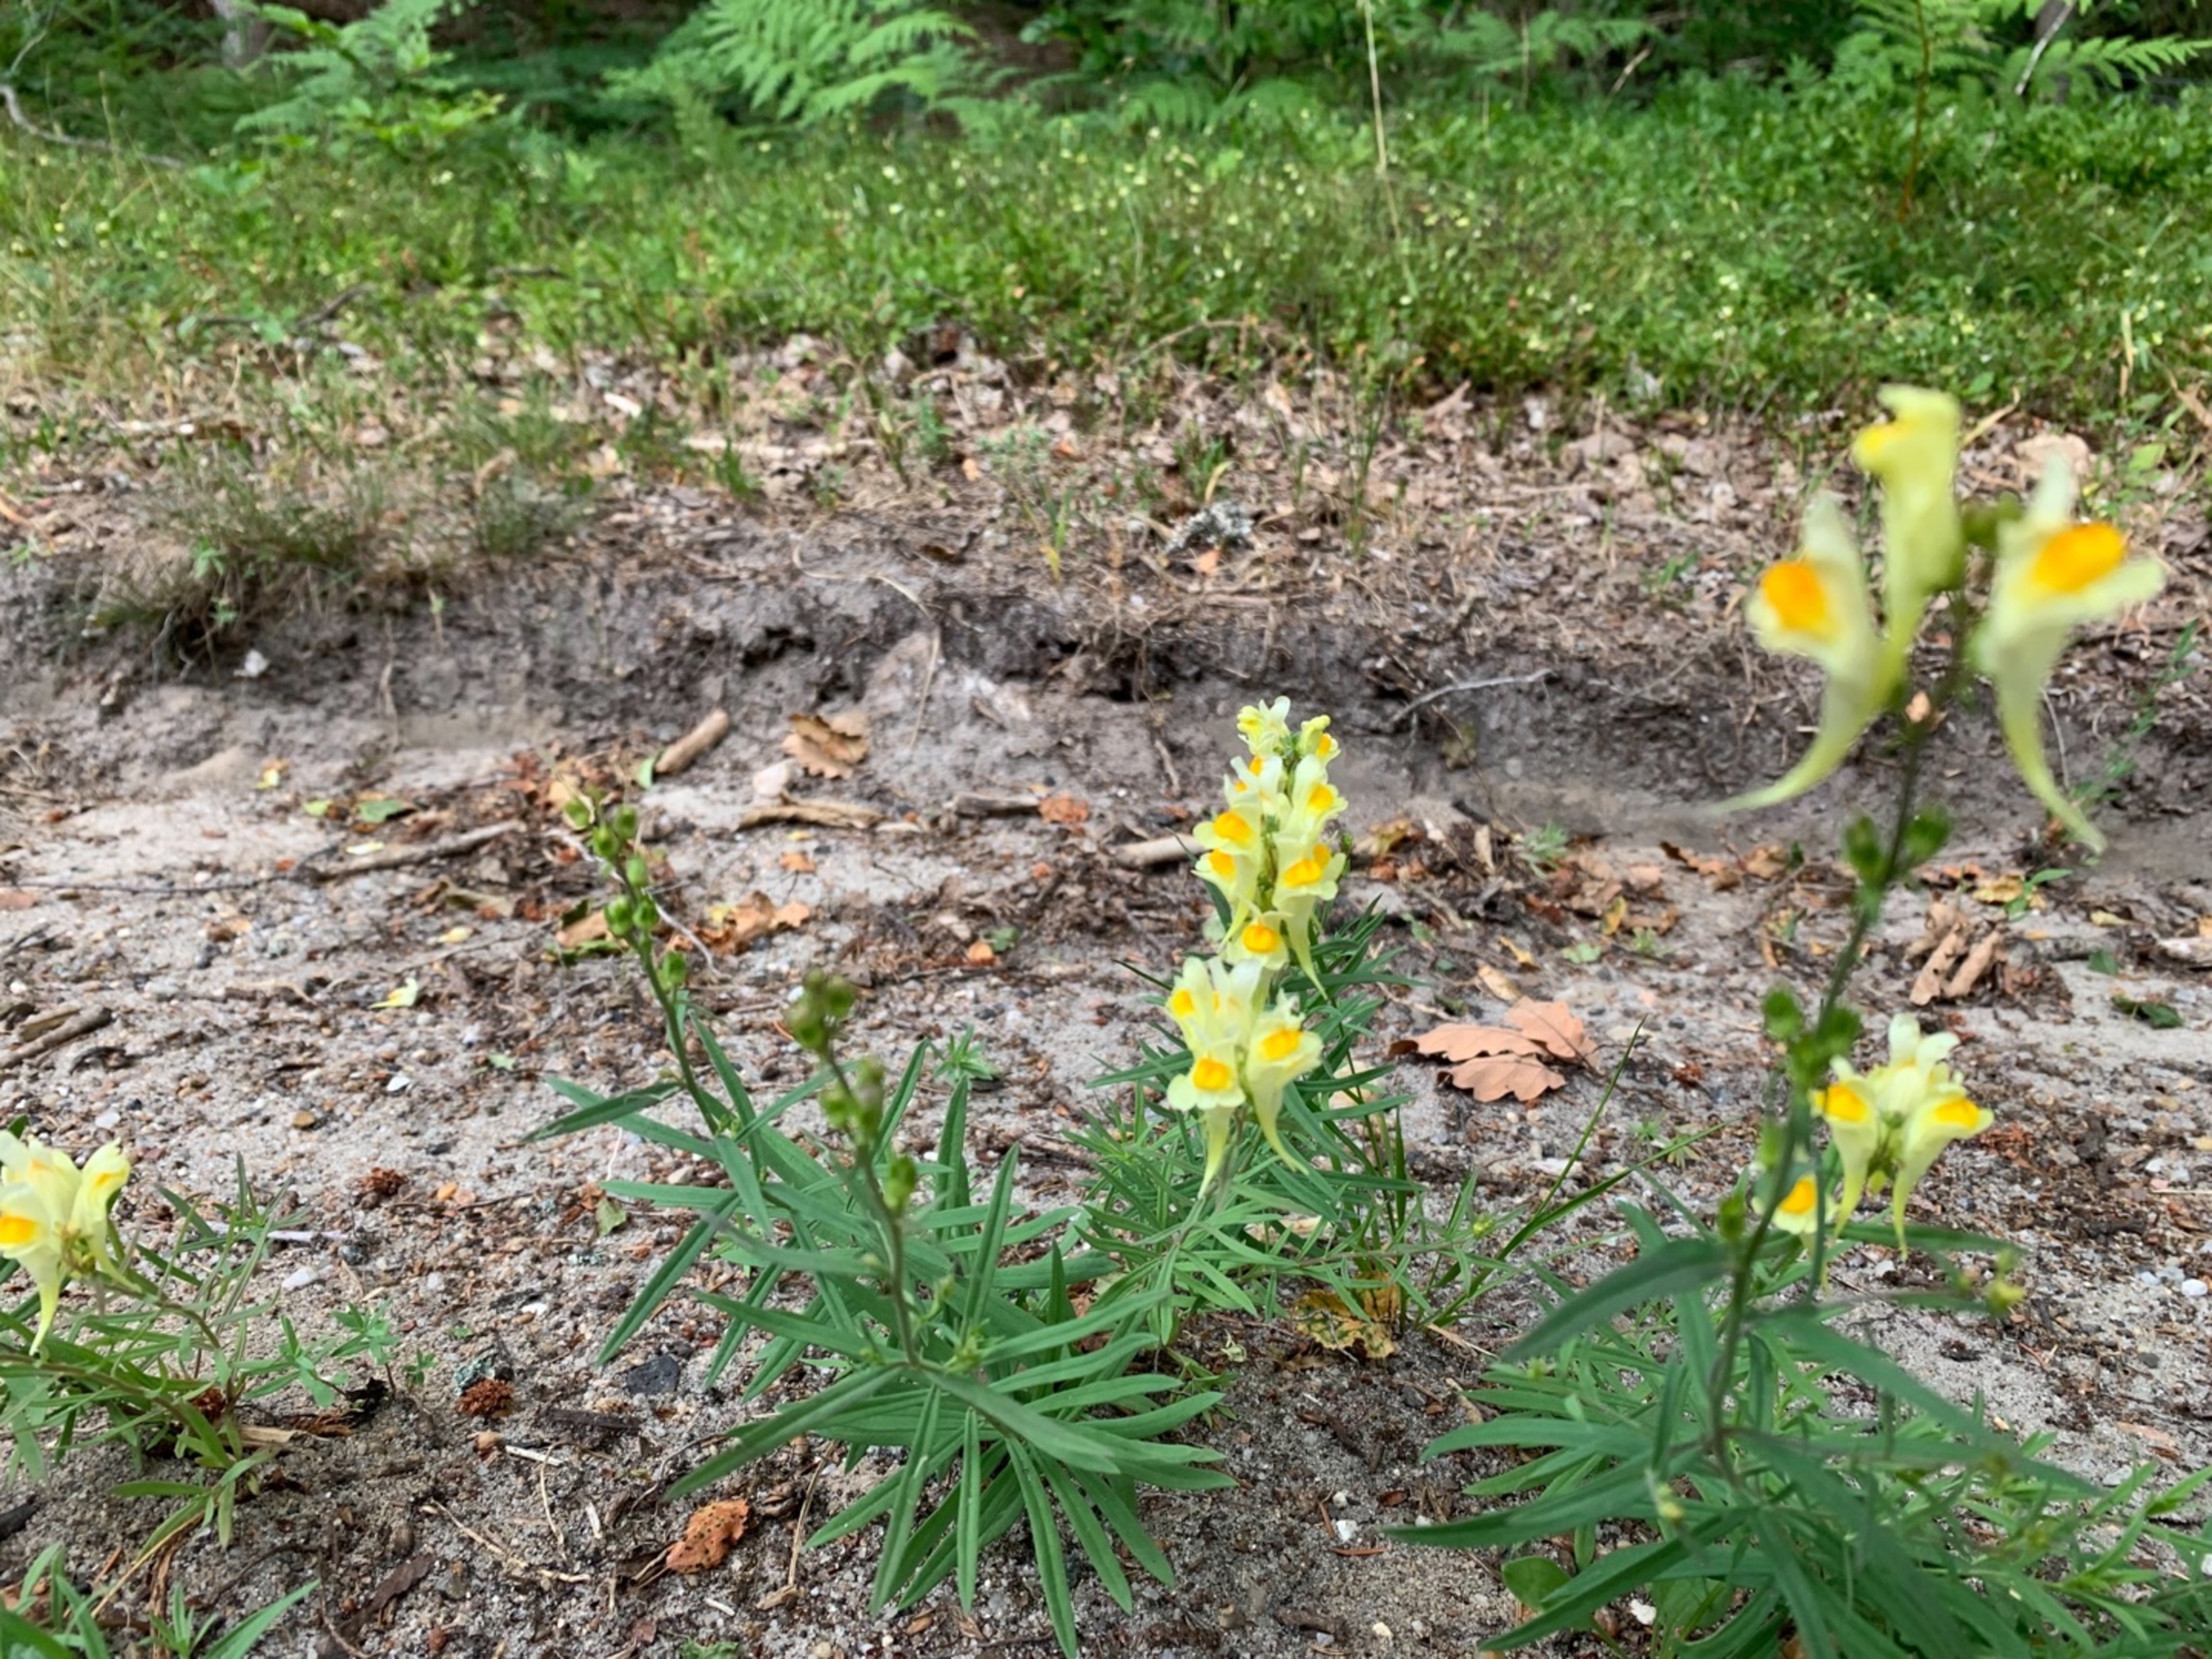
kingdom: Plantae
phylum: Tracheophyta
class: Magnoliopsida
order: Lamiales
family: Plantaginaceae
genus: Linaria
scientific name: Linaria vulgaris
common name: Almindelig torskemund
